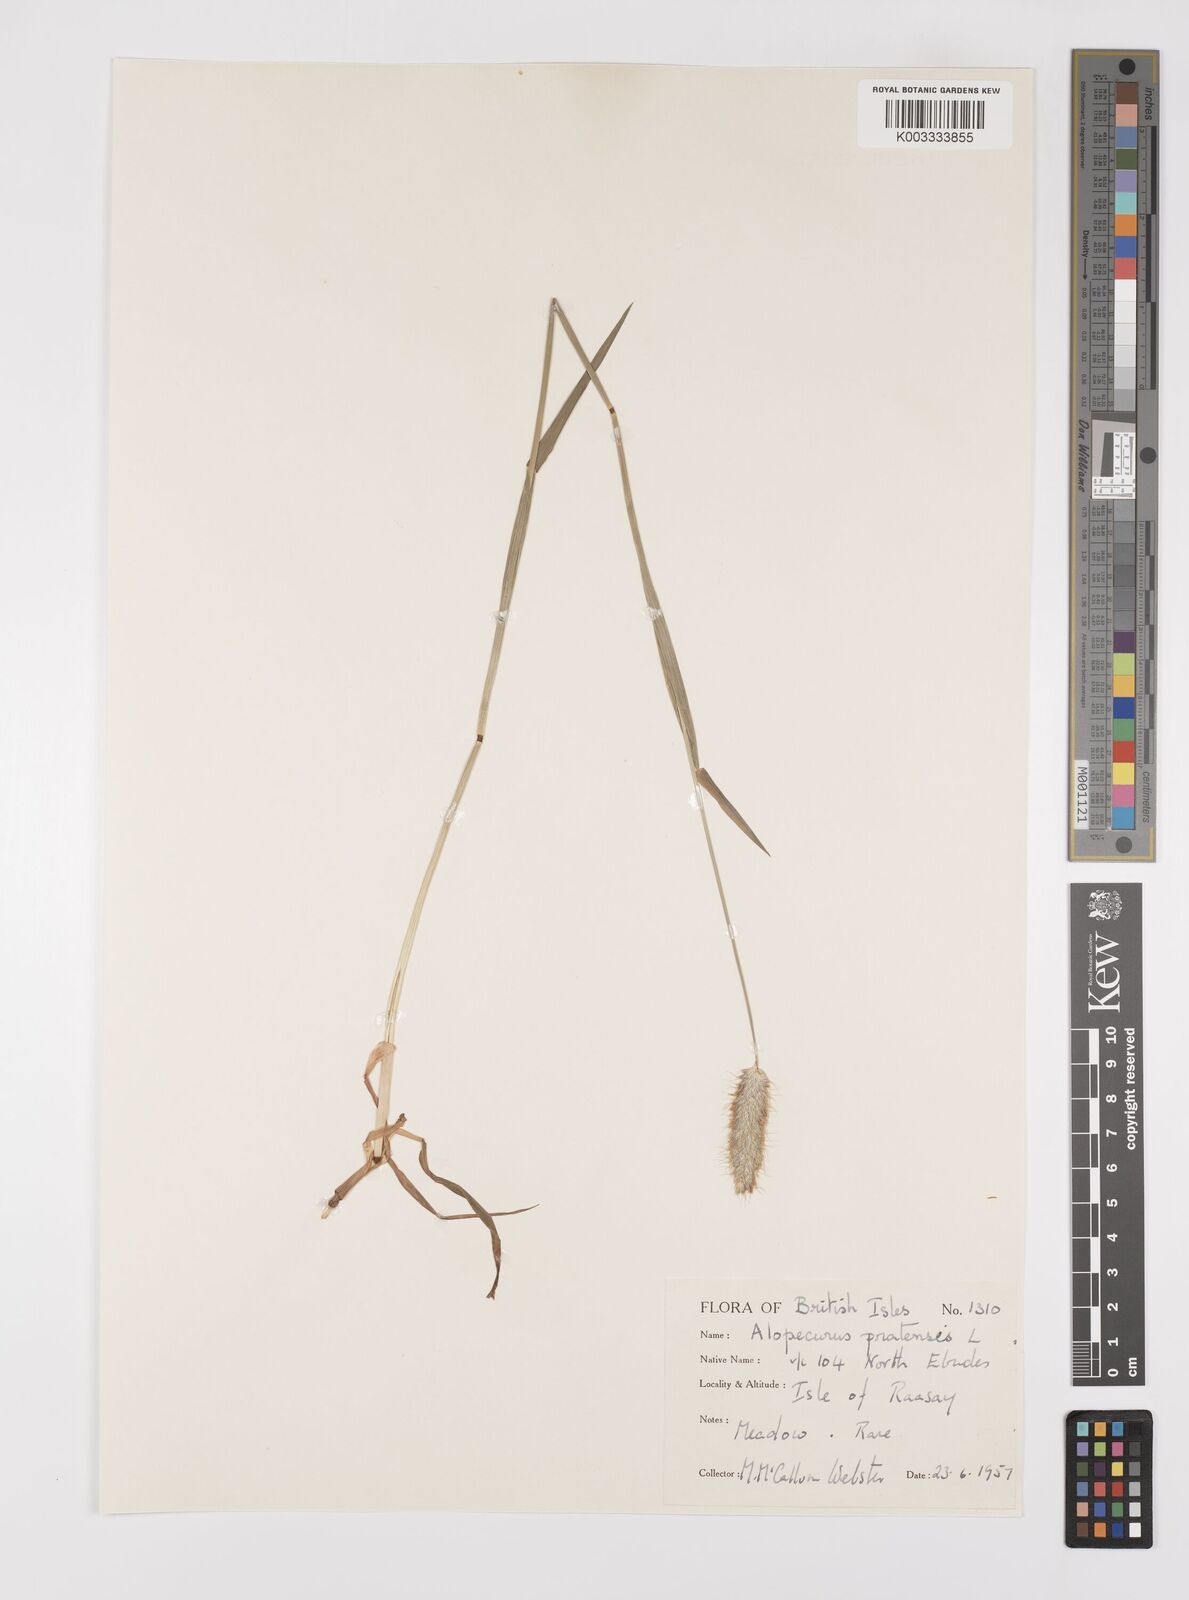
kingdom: Plantae
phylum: Tracheophyta
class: Liliopsida
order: Poales
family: Poaceae
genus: Alopecurus
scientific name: Alopecurus pratensis
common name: Meadow foxtail
